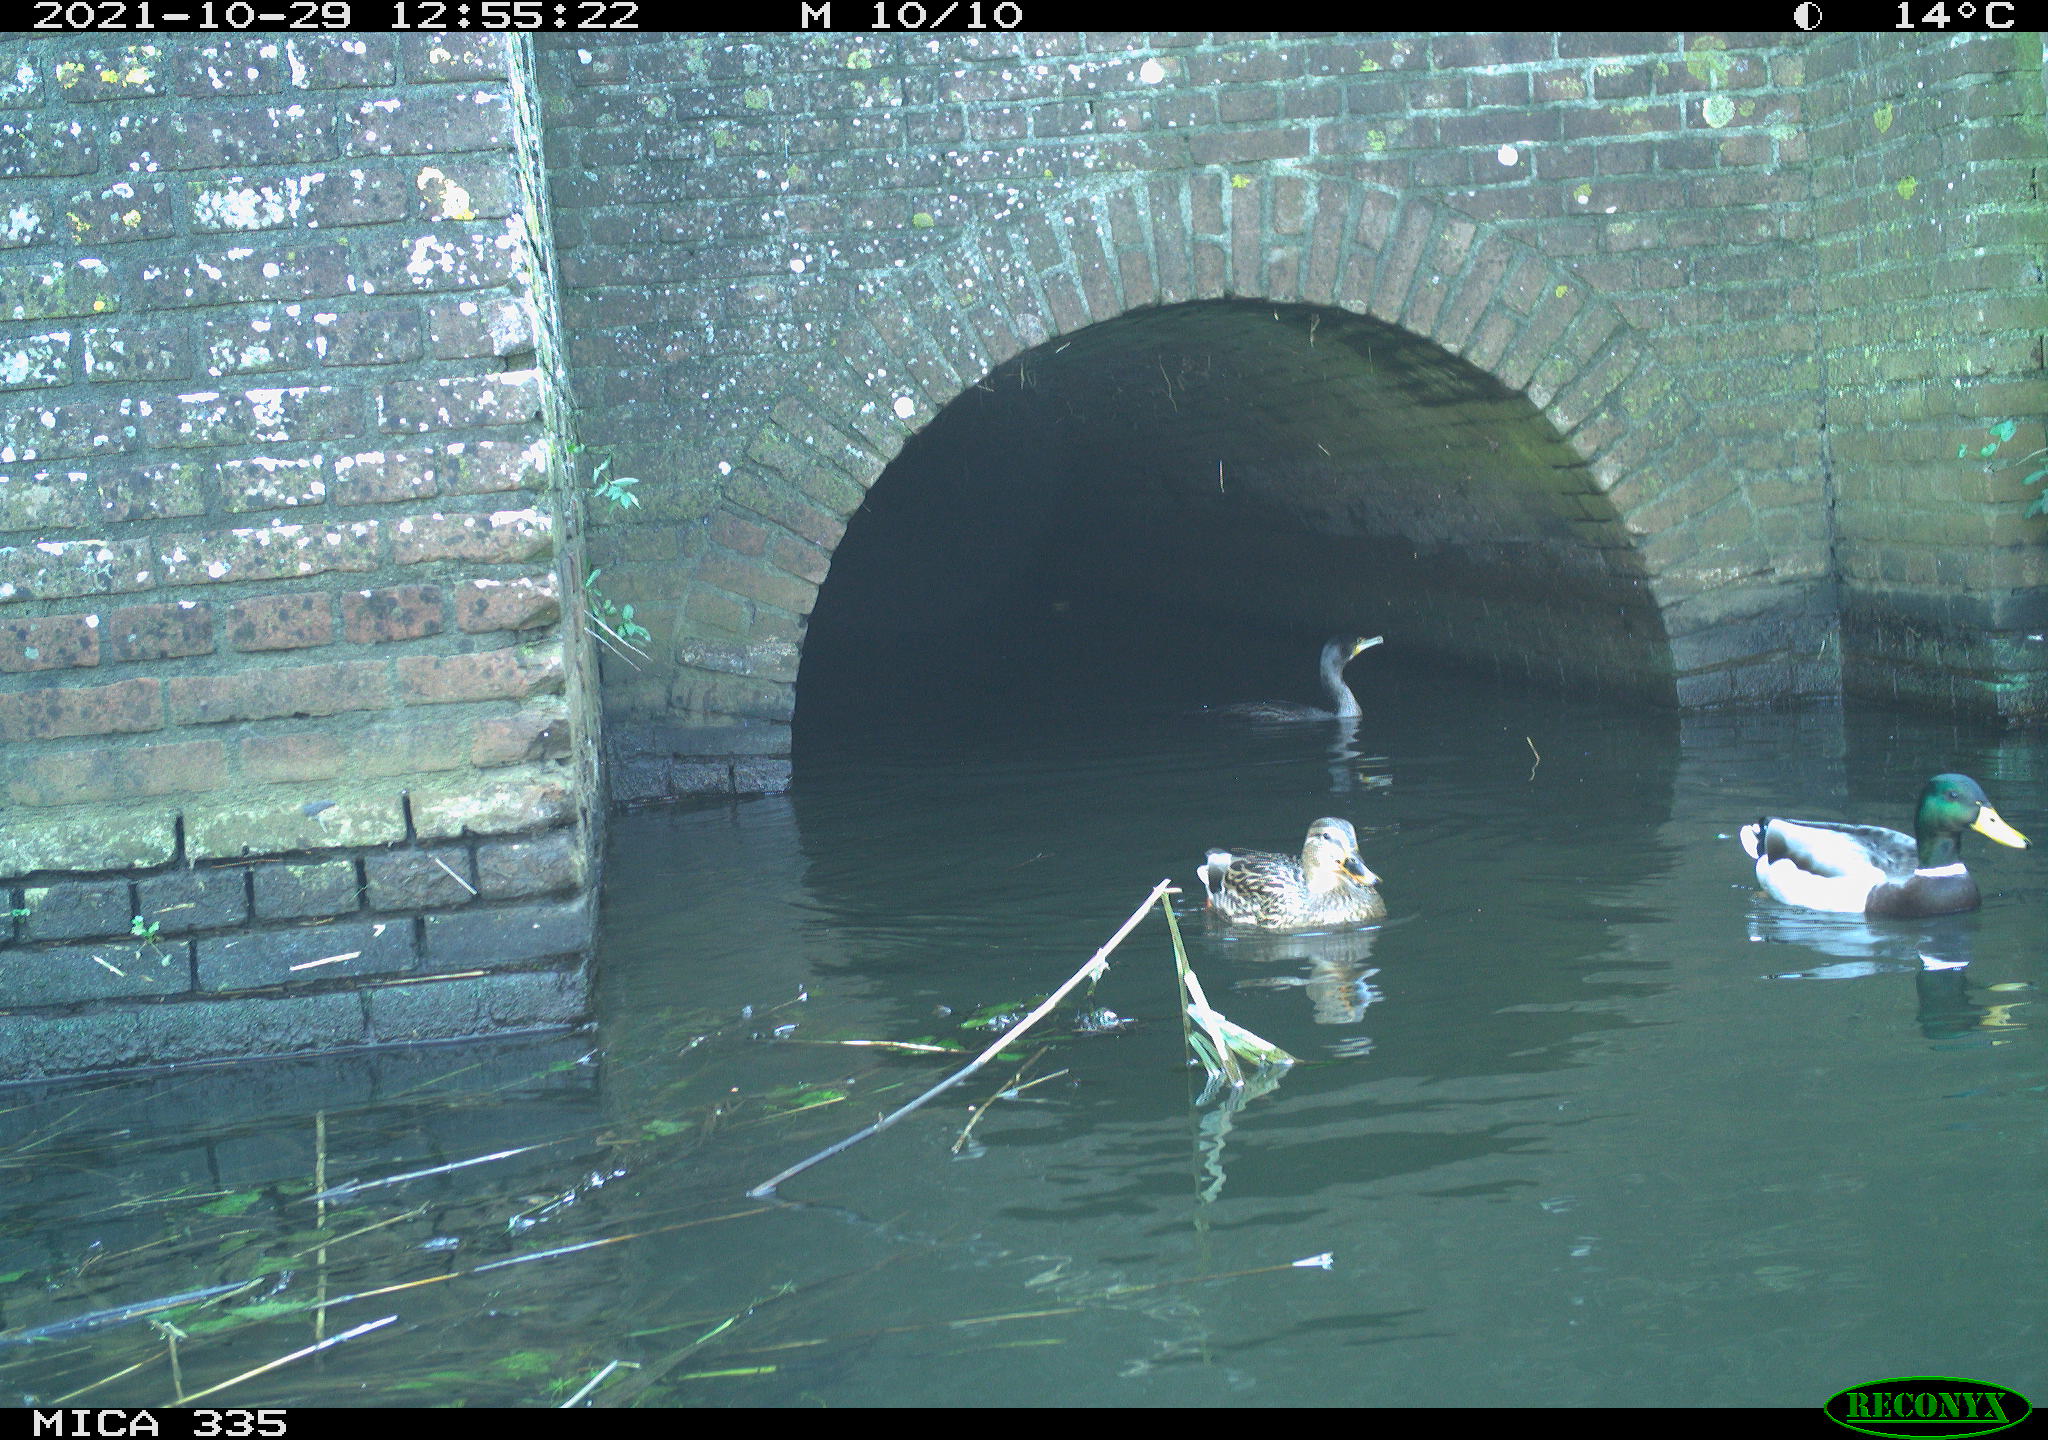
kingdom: Animalia
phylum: Chordata
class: Aves
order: Anseriformes
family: Anatidae
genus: Anas
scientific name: Anas platyrhynchos
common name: Mallard
